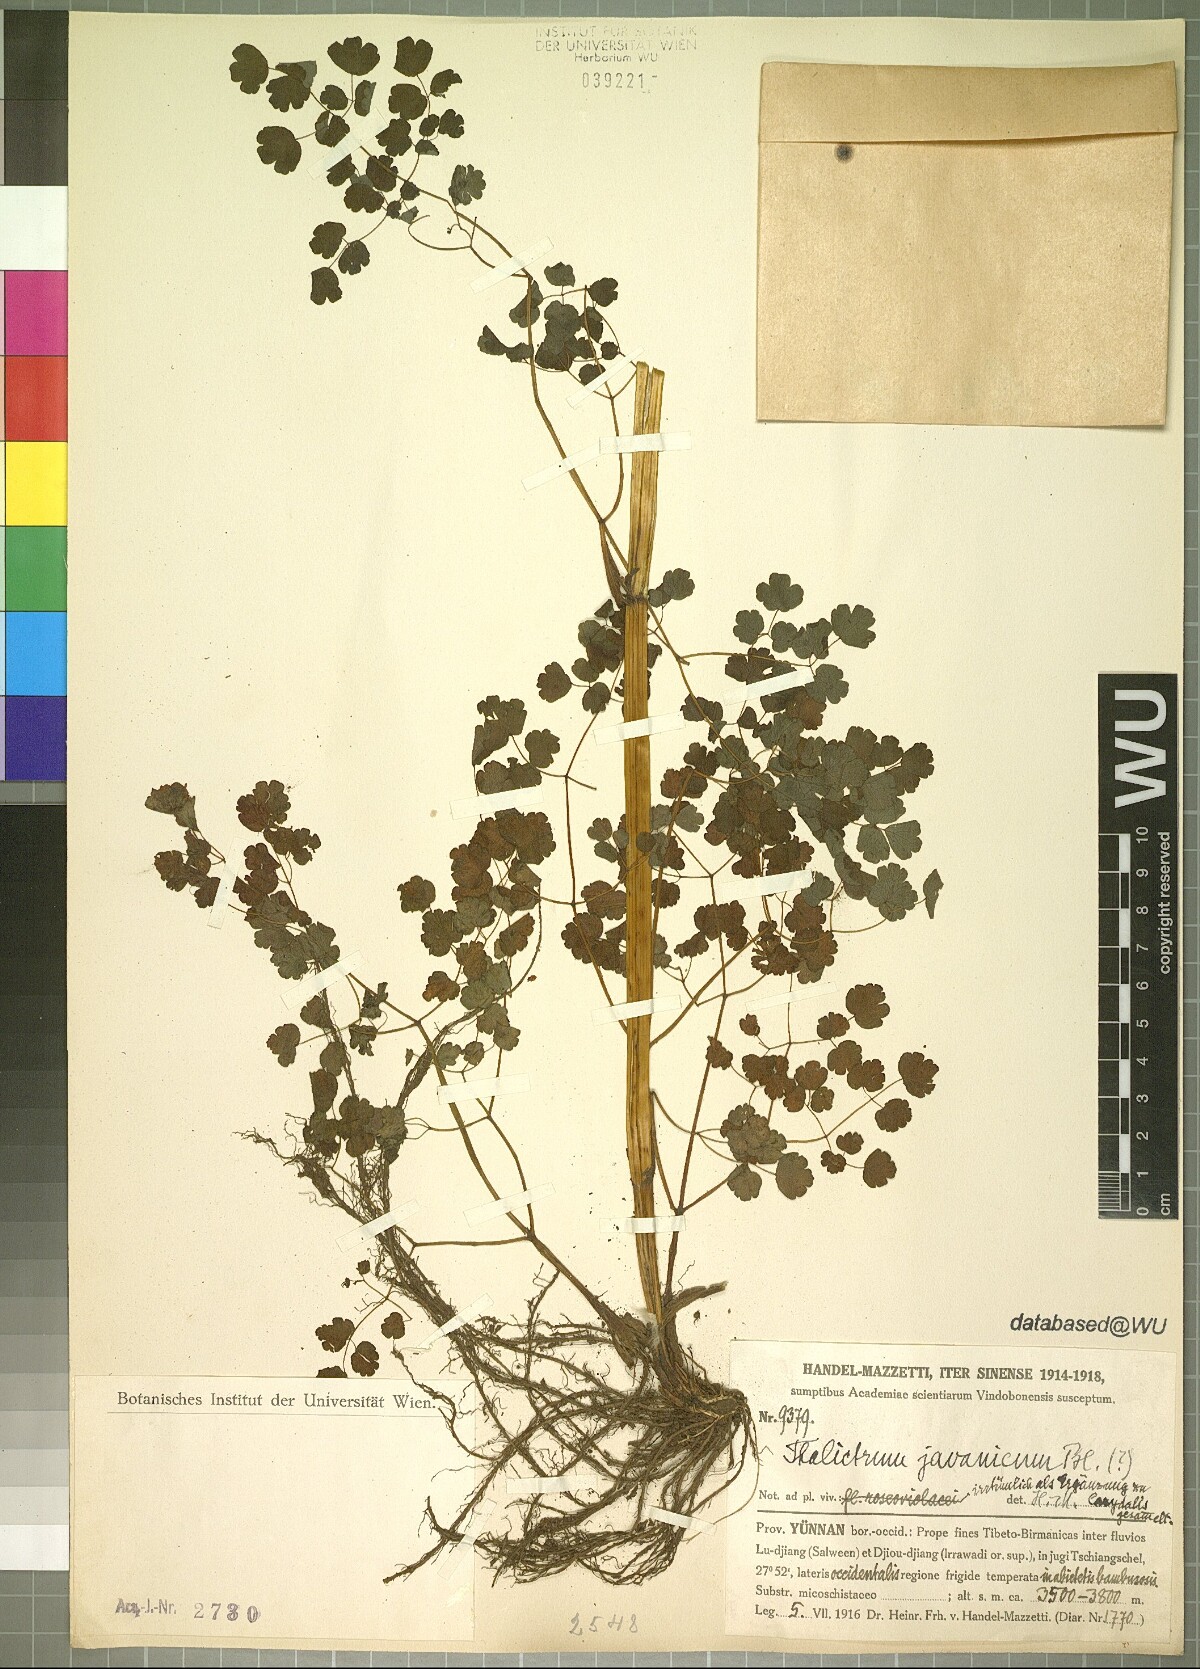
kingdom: Plantae
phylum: Tracheophyta
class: Magnoliopsida
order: Ranunculales
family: Ranunculaceae
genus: Thalictrum
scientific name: Thalictrum javanicum
